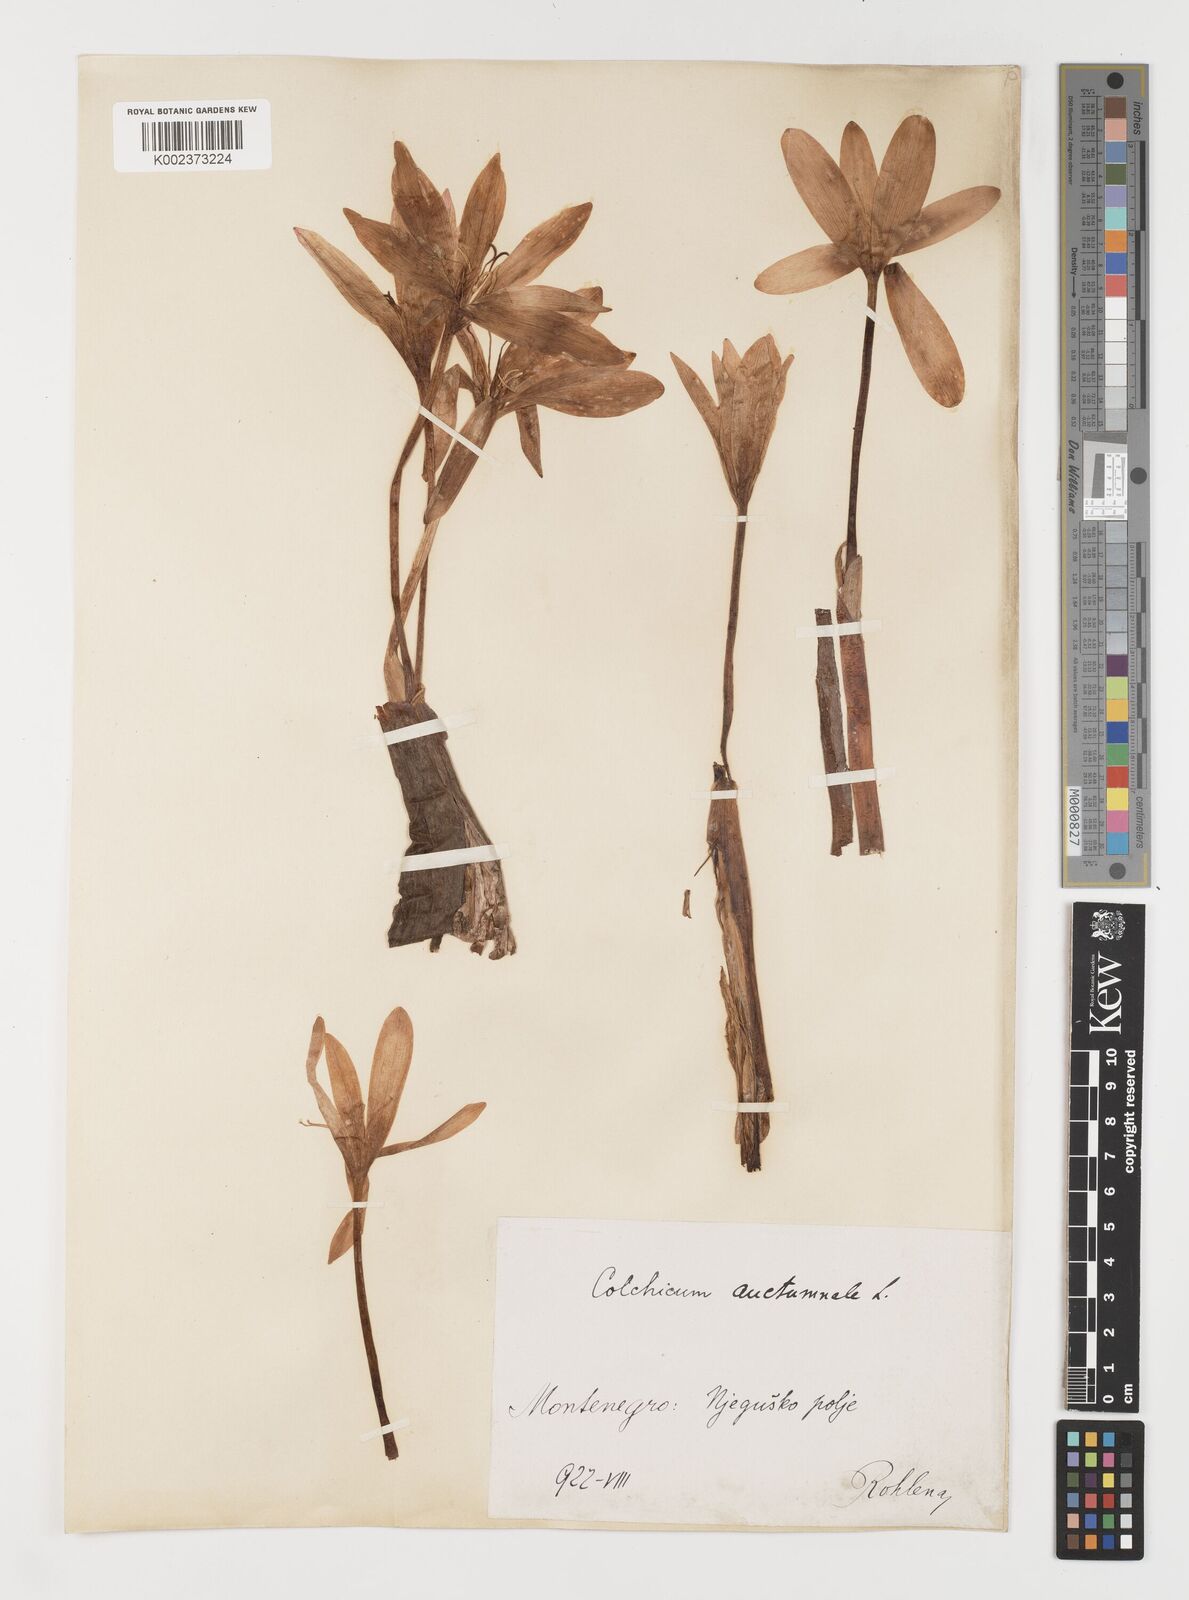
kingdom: Plantae
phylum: Tracheophyta
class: Liliopsida
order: Liliales
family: Colchicaceae
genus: Colchicum
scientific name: Colchicum autumnale
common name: Autumn crocus
